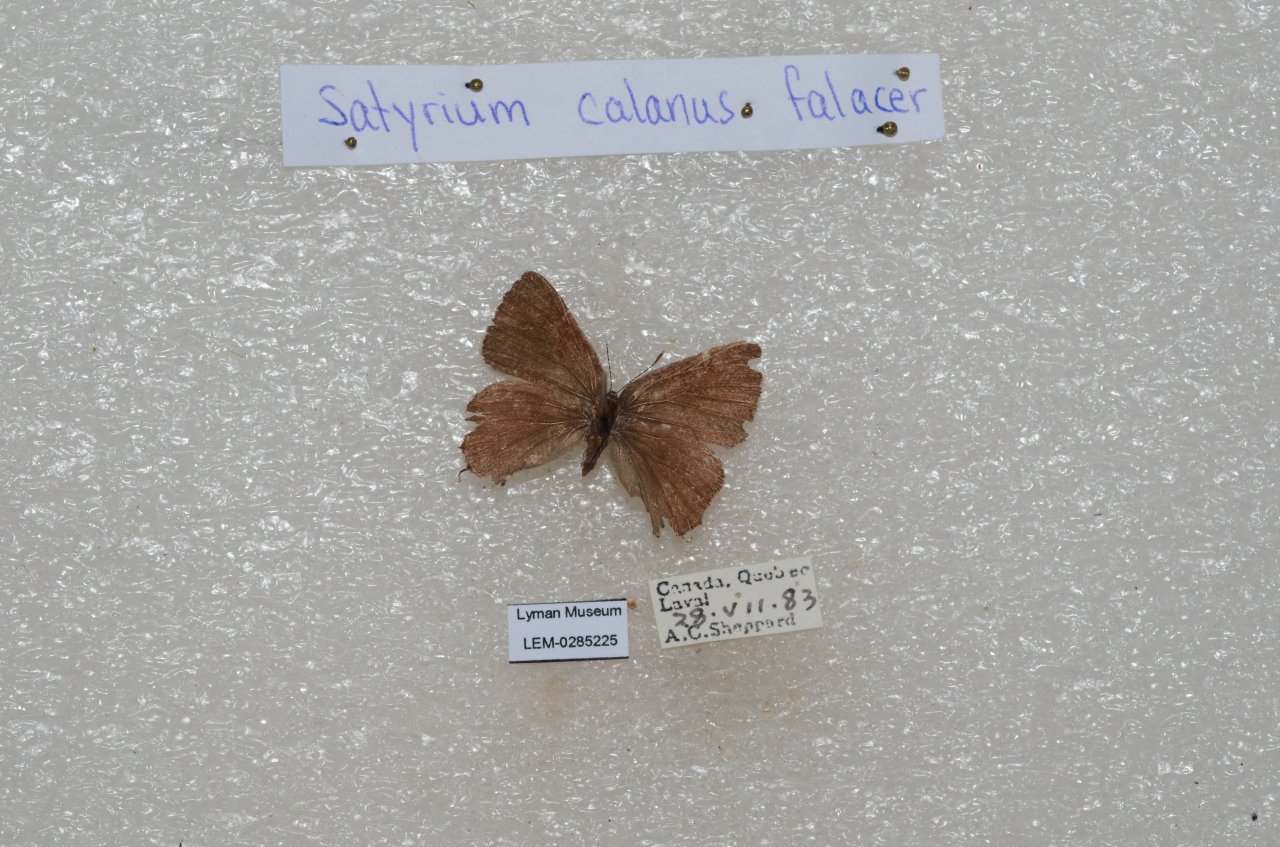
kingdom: Animalia
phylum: Arthropoda
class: Insecta
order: Lepidoptera
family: Lycaenidae
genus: Satyrium
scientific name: Satyrium calanus
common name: Banded Hairstreak
